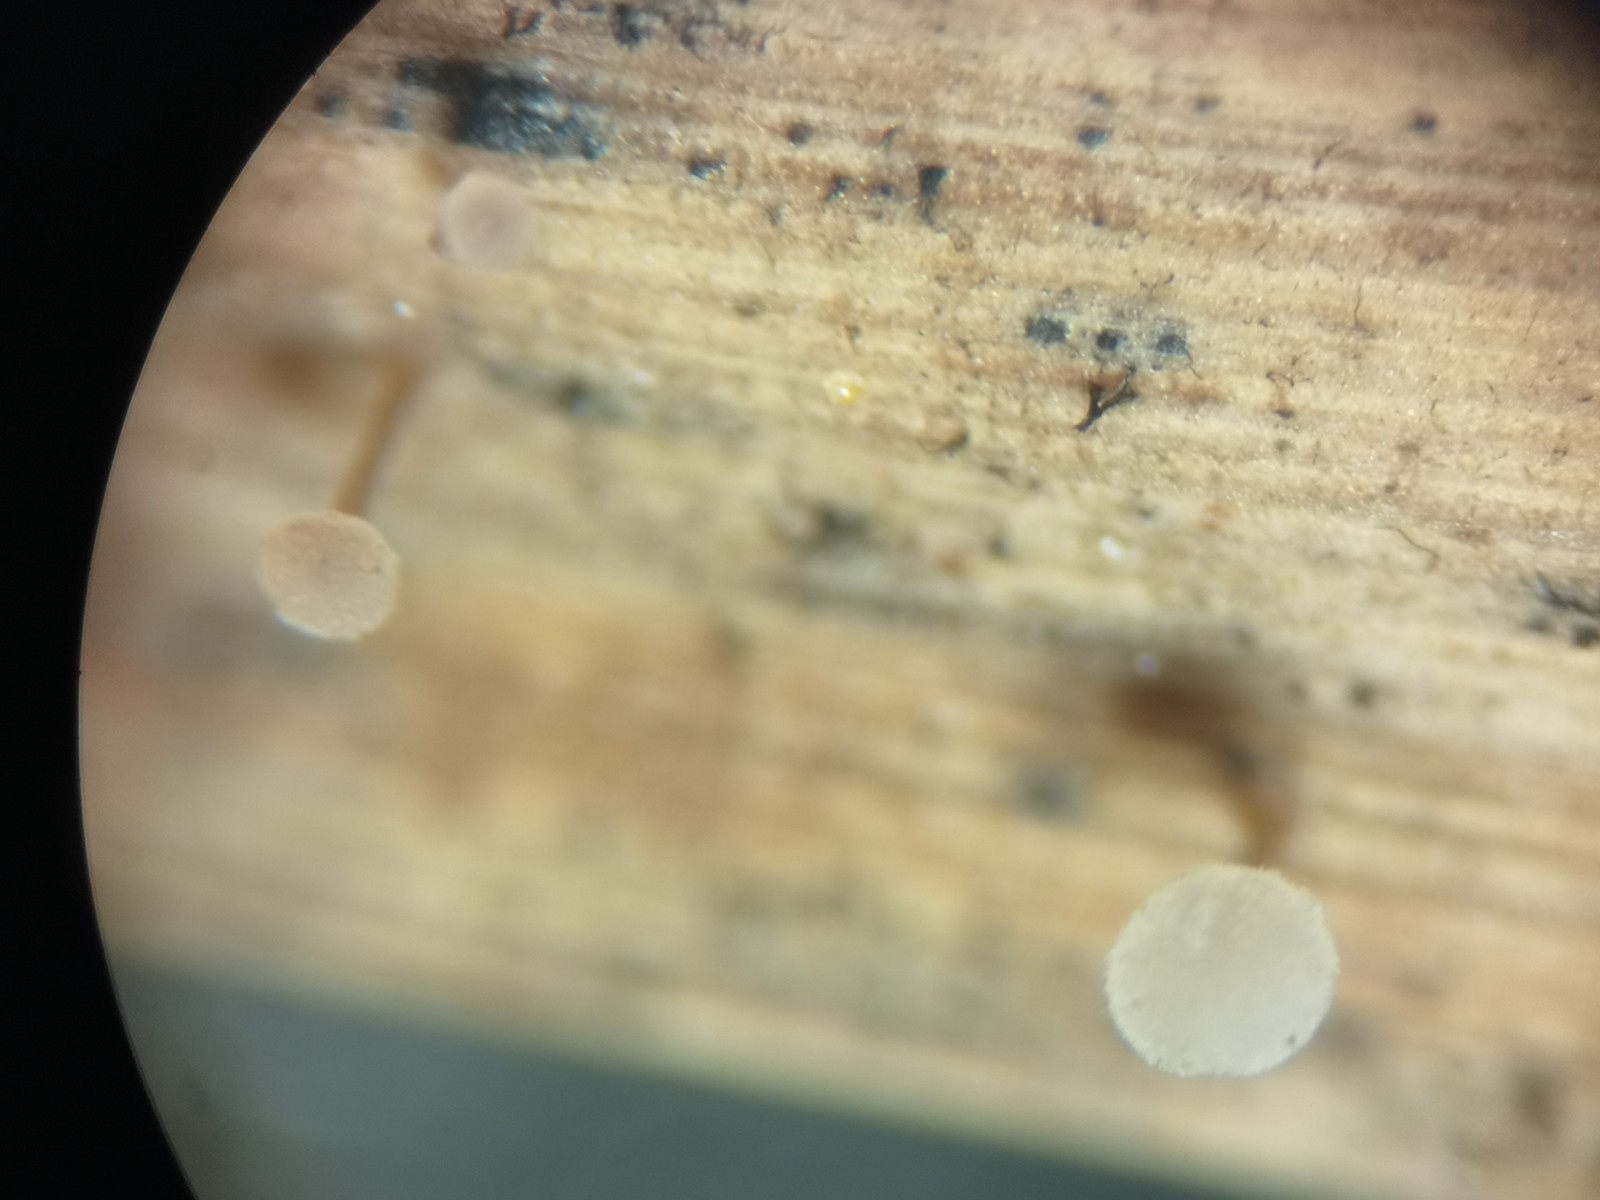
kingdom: Fungi
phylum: Basidiomycota
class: Agaricomycetes
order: Agaricales
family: Typhulaceae
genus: Typhula
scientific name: Typhula
